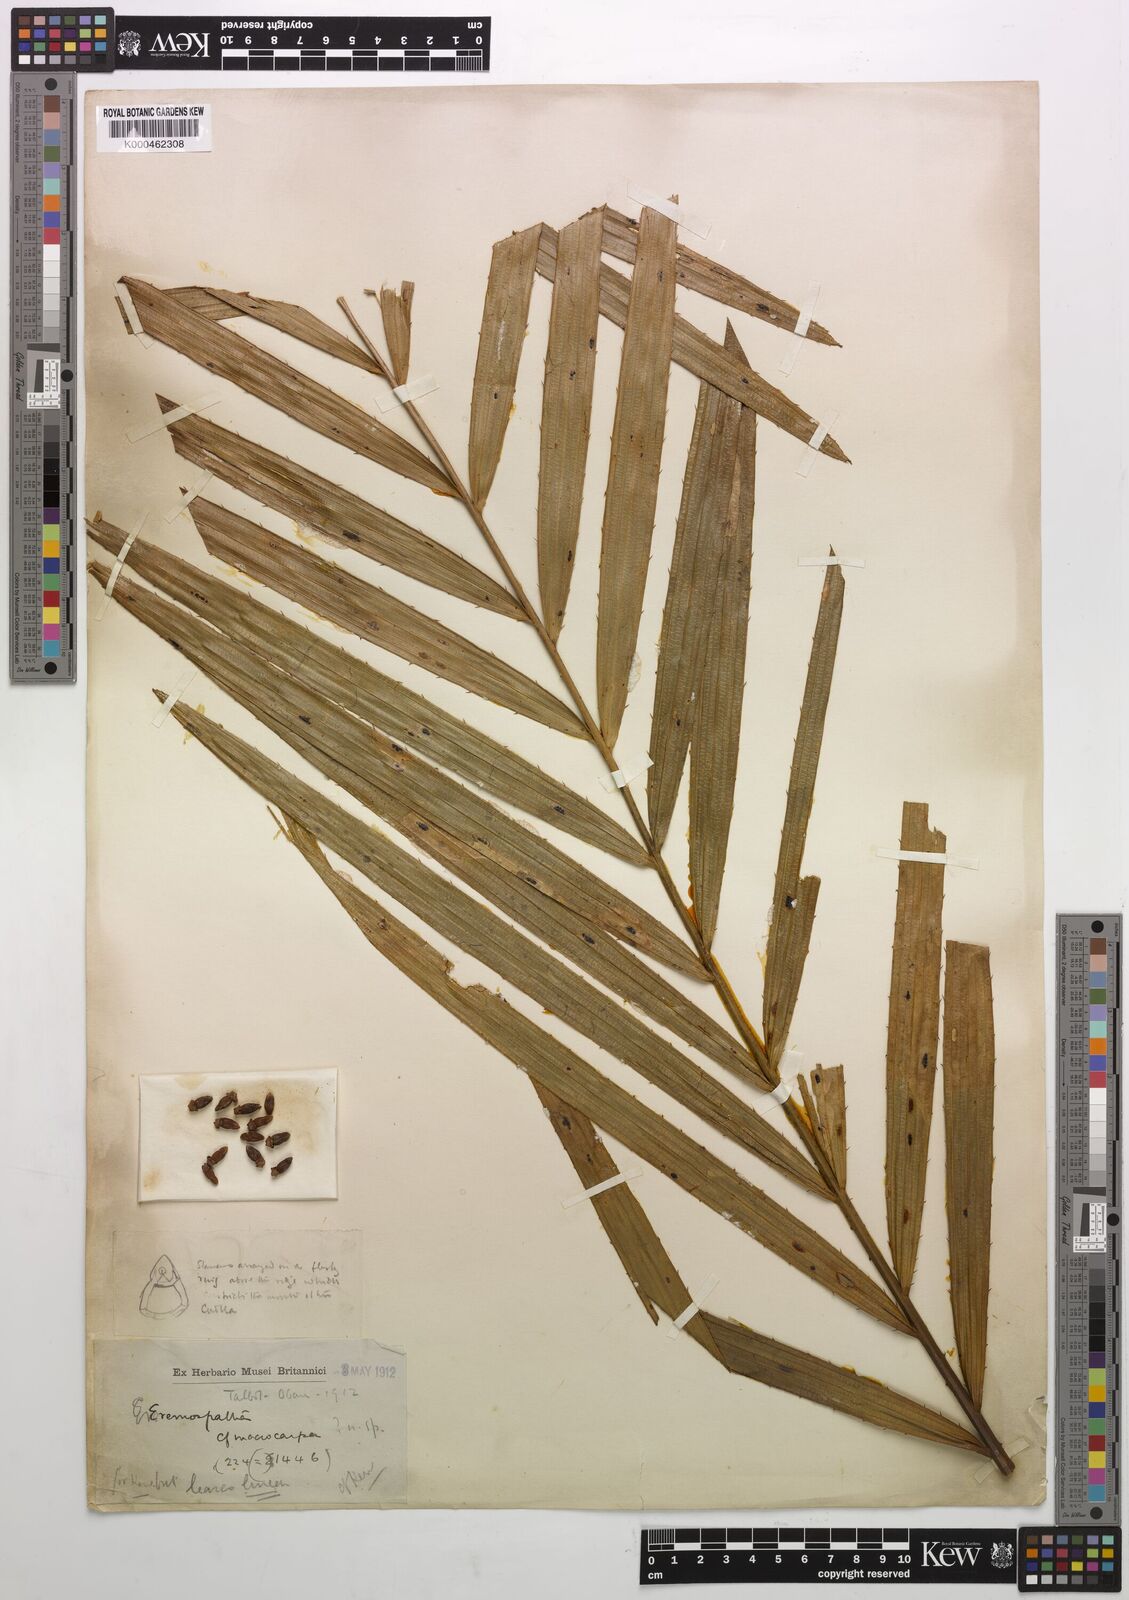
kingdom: Plantae
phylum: Tracheophyta
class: Liliopsida
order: Arecales
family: Arecaceae
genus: Eremospatha
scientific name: Eremospatha
